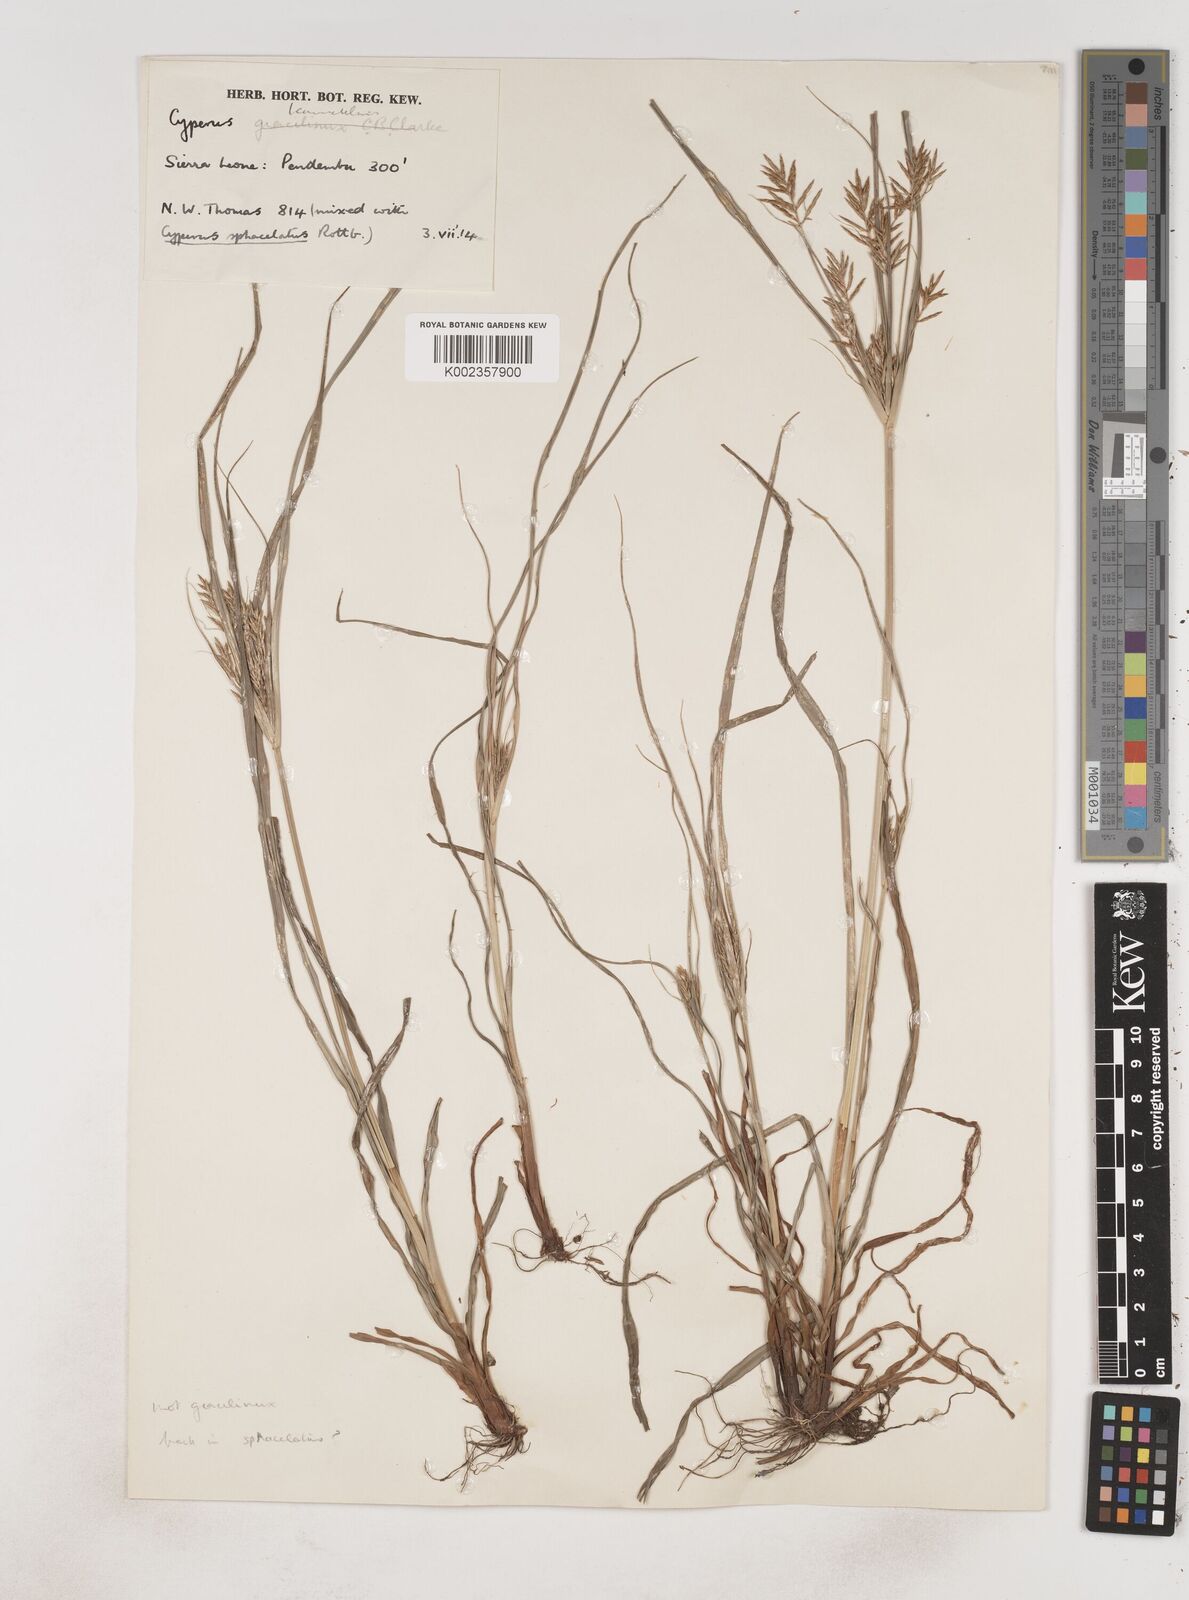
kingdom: Plantae
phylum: Tracheophyta
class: Liliopsida
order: Poales
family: Cyperaceae
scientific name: Cyperaceae
